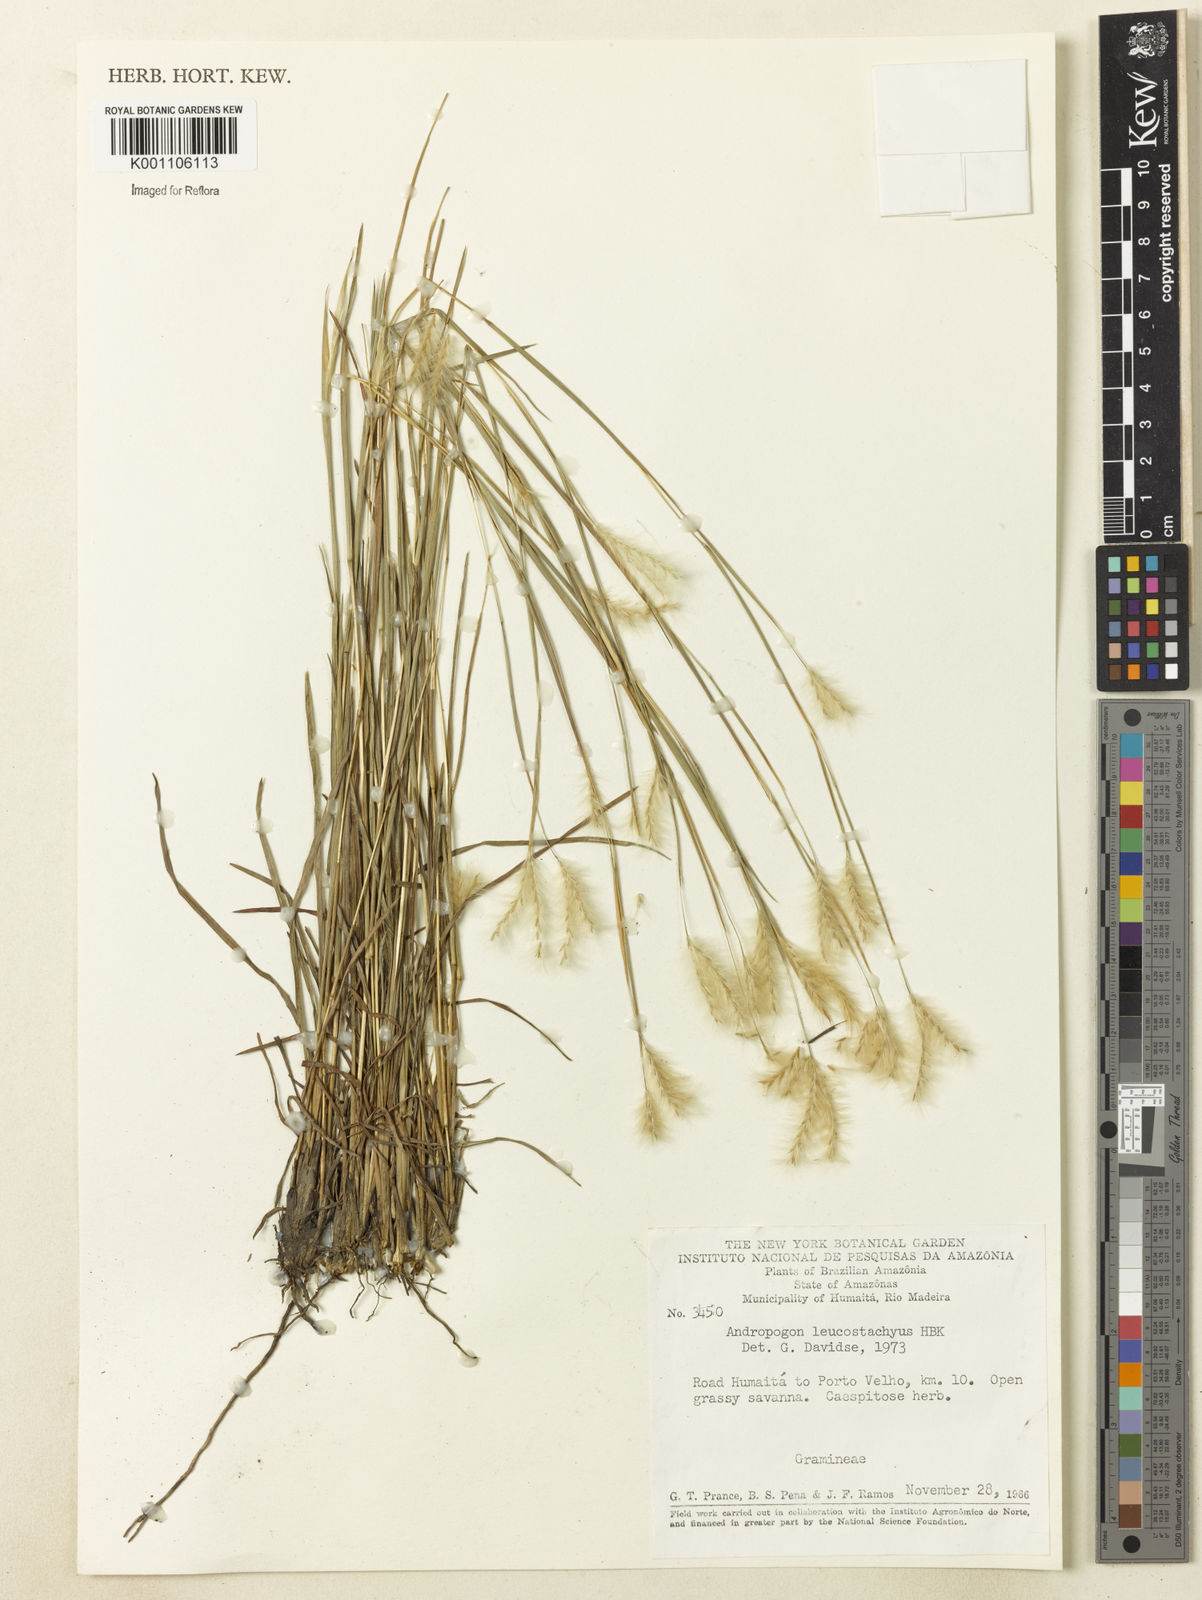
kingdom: Plantae
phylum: Tracheophyta
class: Liliopsida
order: Poales
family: Poaceae
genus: Andropogon
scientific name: Andropogon leucostachyus
